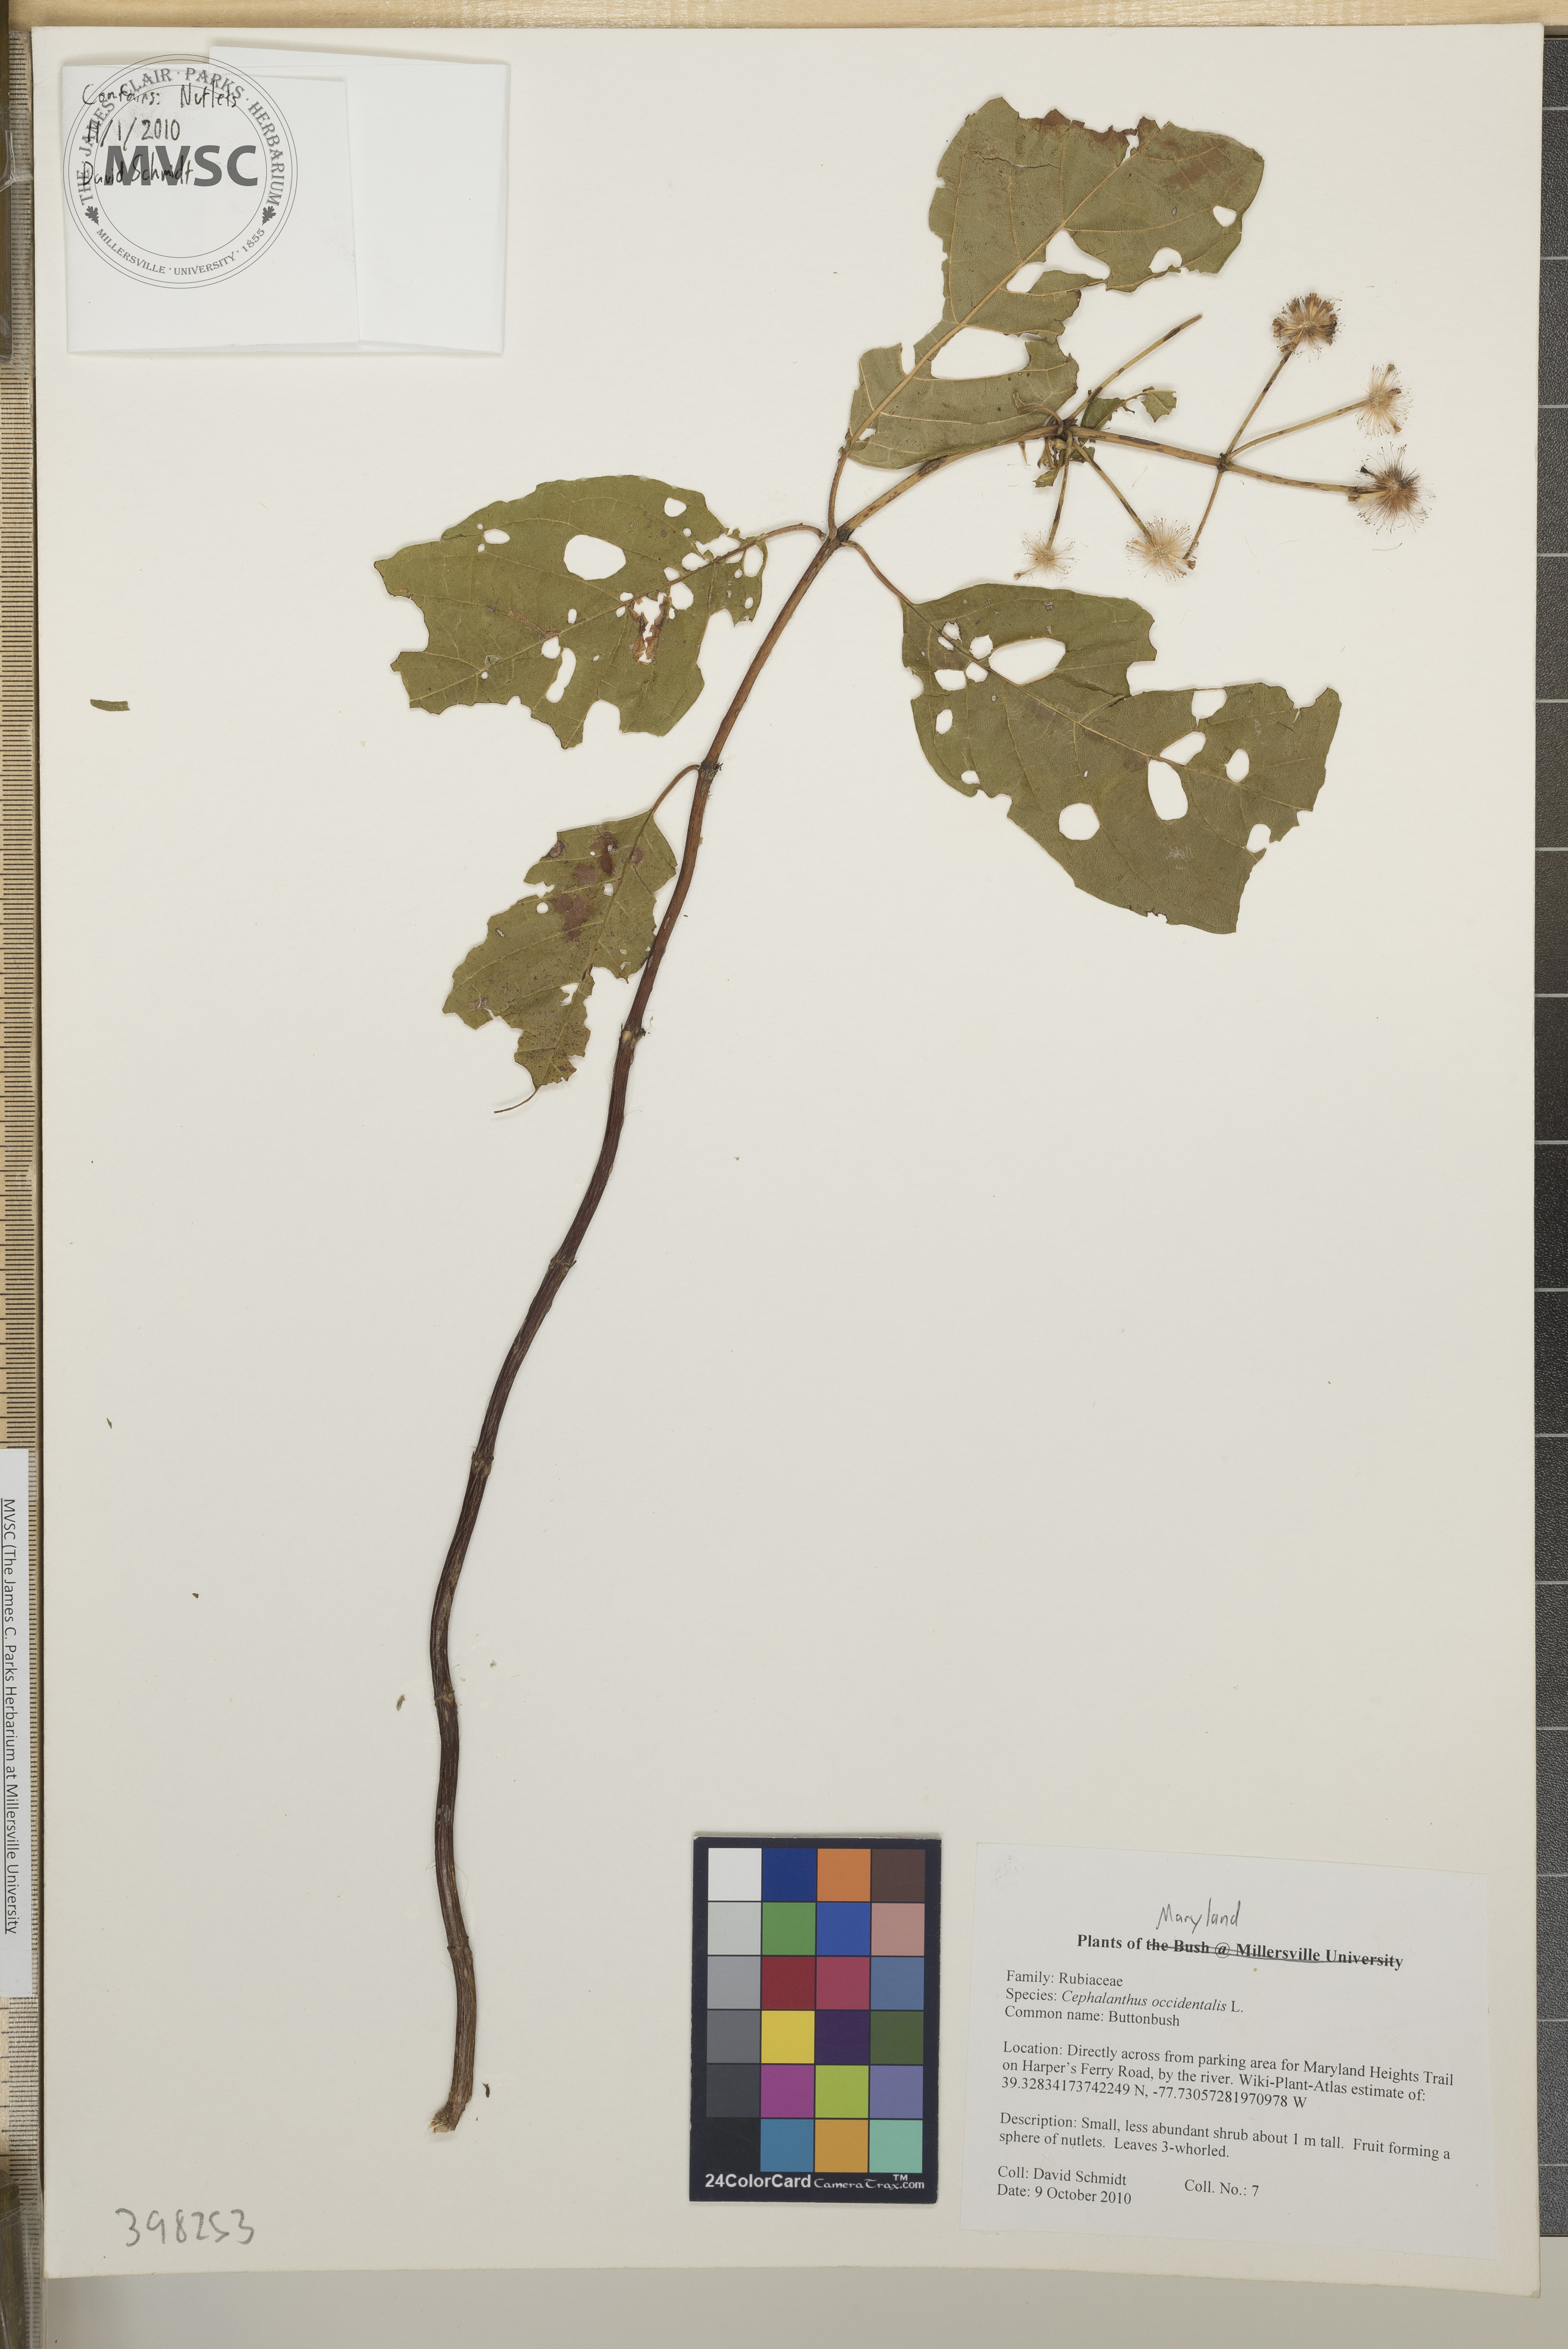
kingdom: Plantae
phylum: Tracheophyta
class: Magnoliopsida
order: Gentianales
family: Rubiaceae
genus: Cephalanthus
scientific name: Cephalanthus occidentalis
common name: Buttonbush
